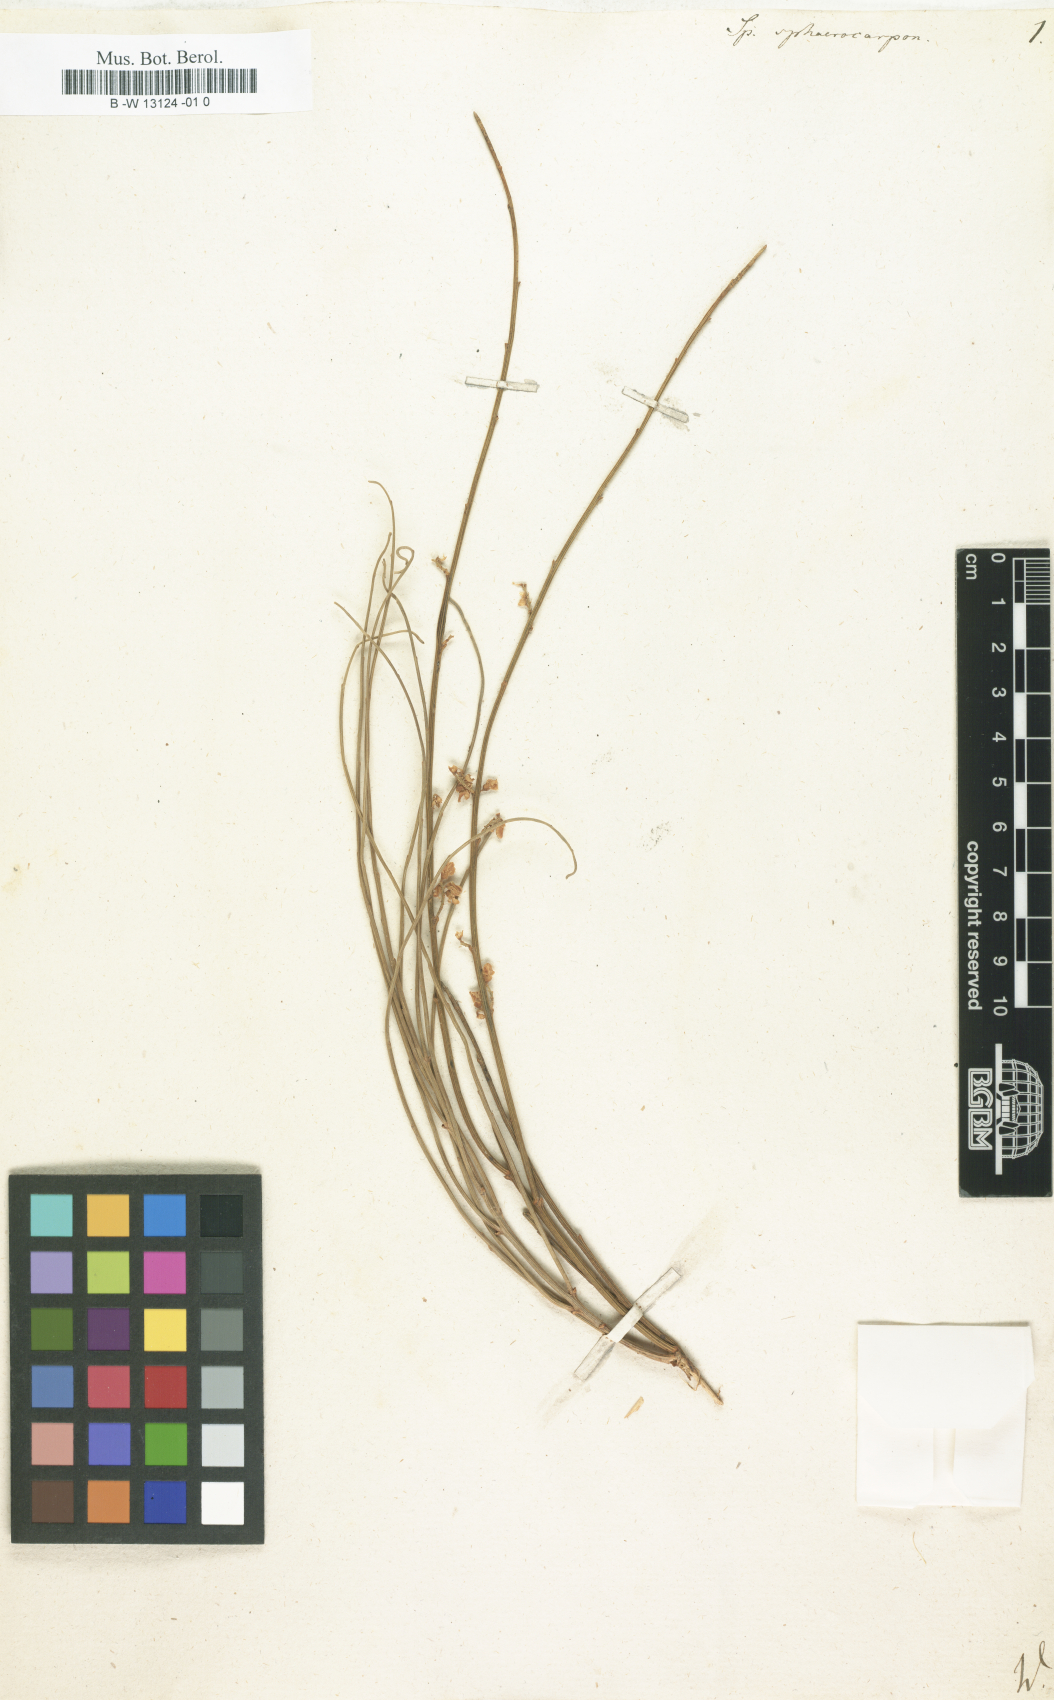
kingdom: Plantae
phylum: Tracheophyta
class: Magnoliopsida
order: Fabales
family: Fabaceae
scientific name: Fabaceae
